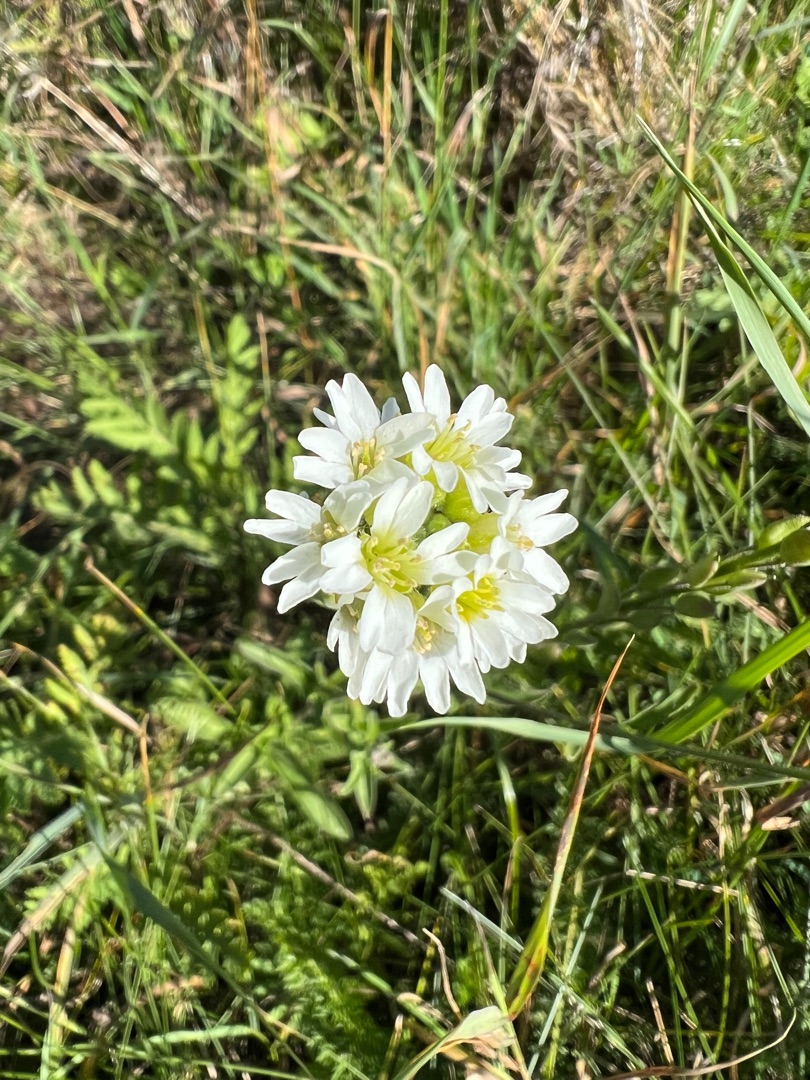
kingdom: Plantae
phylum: Tracheophyta
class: Magnoliopsida
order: Brassicales
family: Brassicaceae
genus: Berteroa
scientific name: Berteroa incana
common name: Kløvplade
